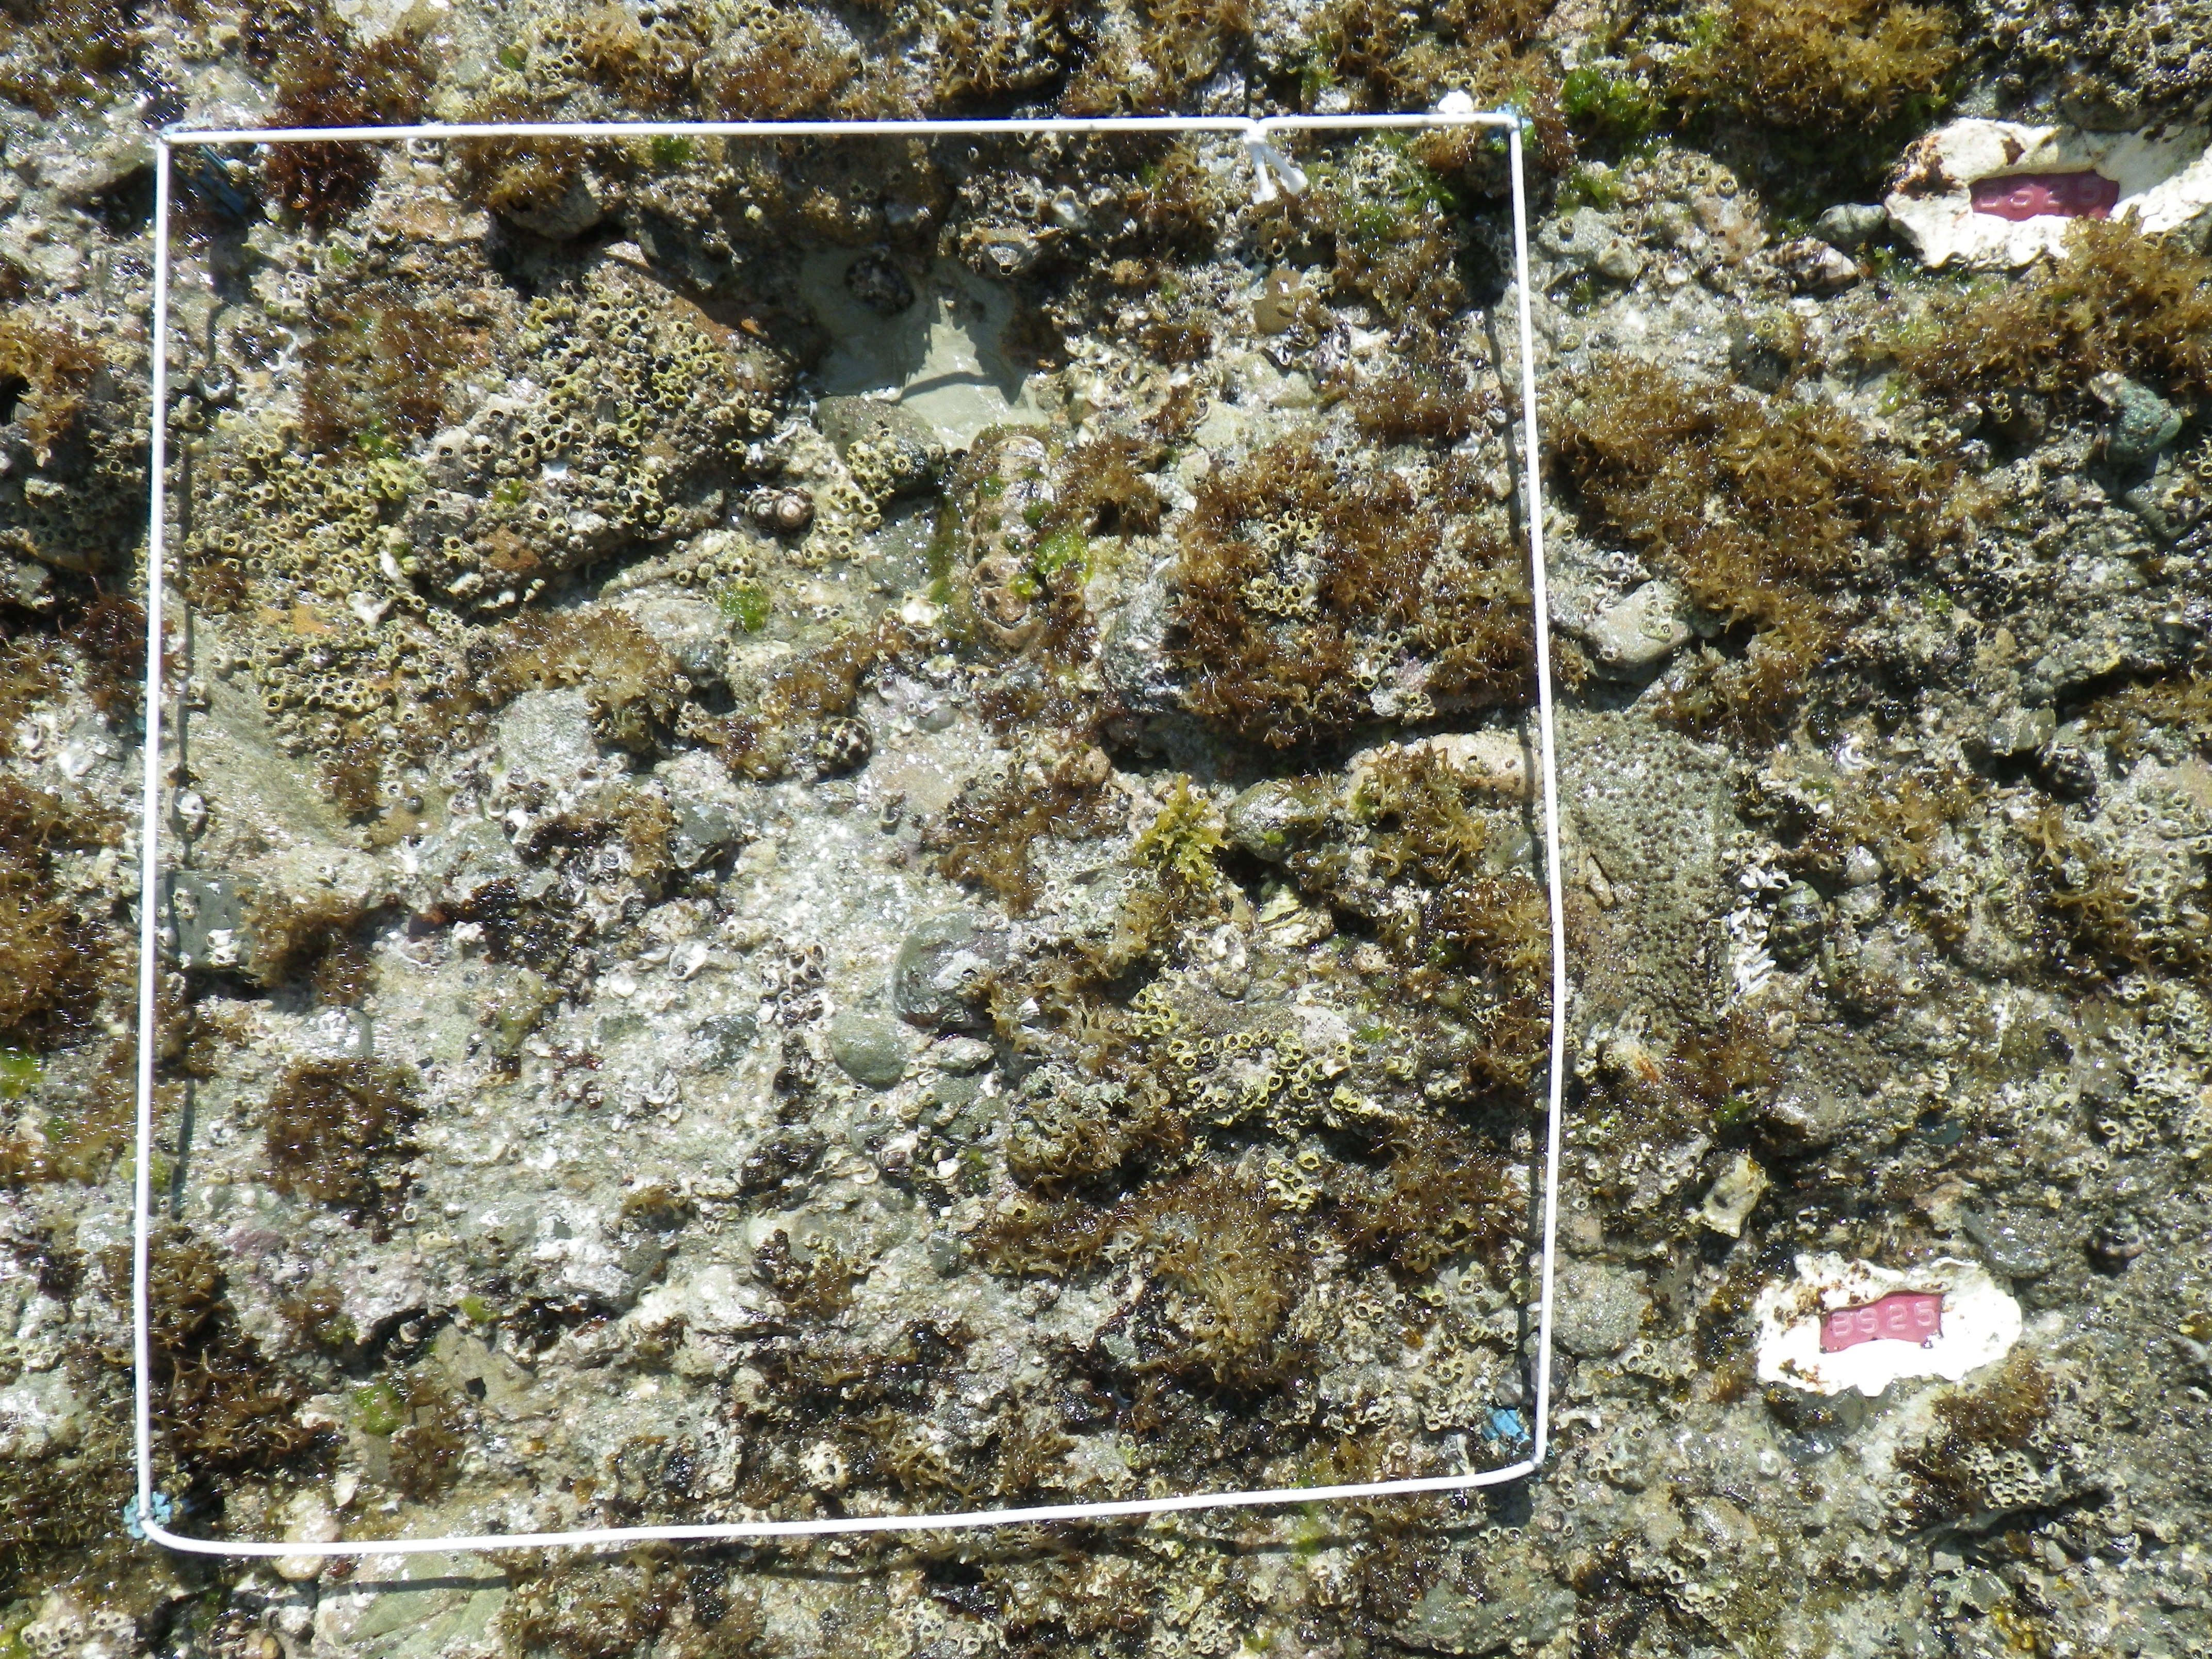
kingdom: Animalia
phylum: Arthropoda
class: Maxillopoda
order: Sessilia
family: Chthamalidae
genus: Chthamalus
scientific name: Chthamalus challengeri
